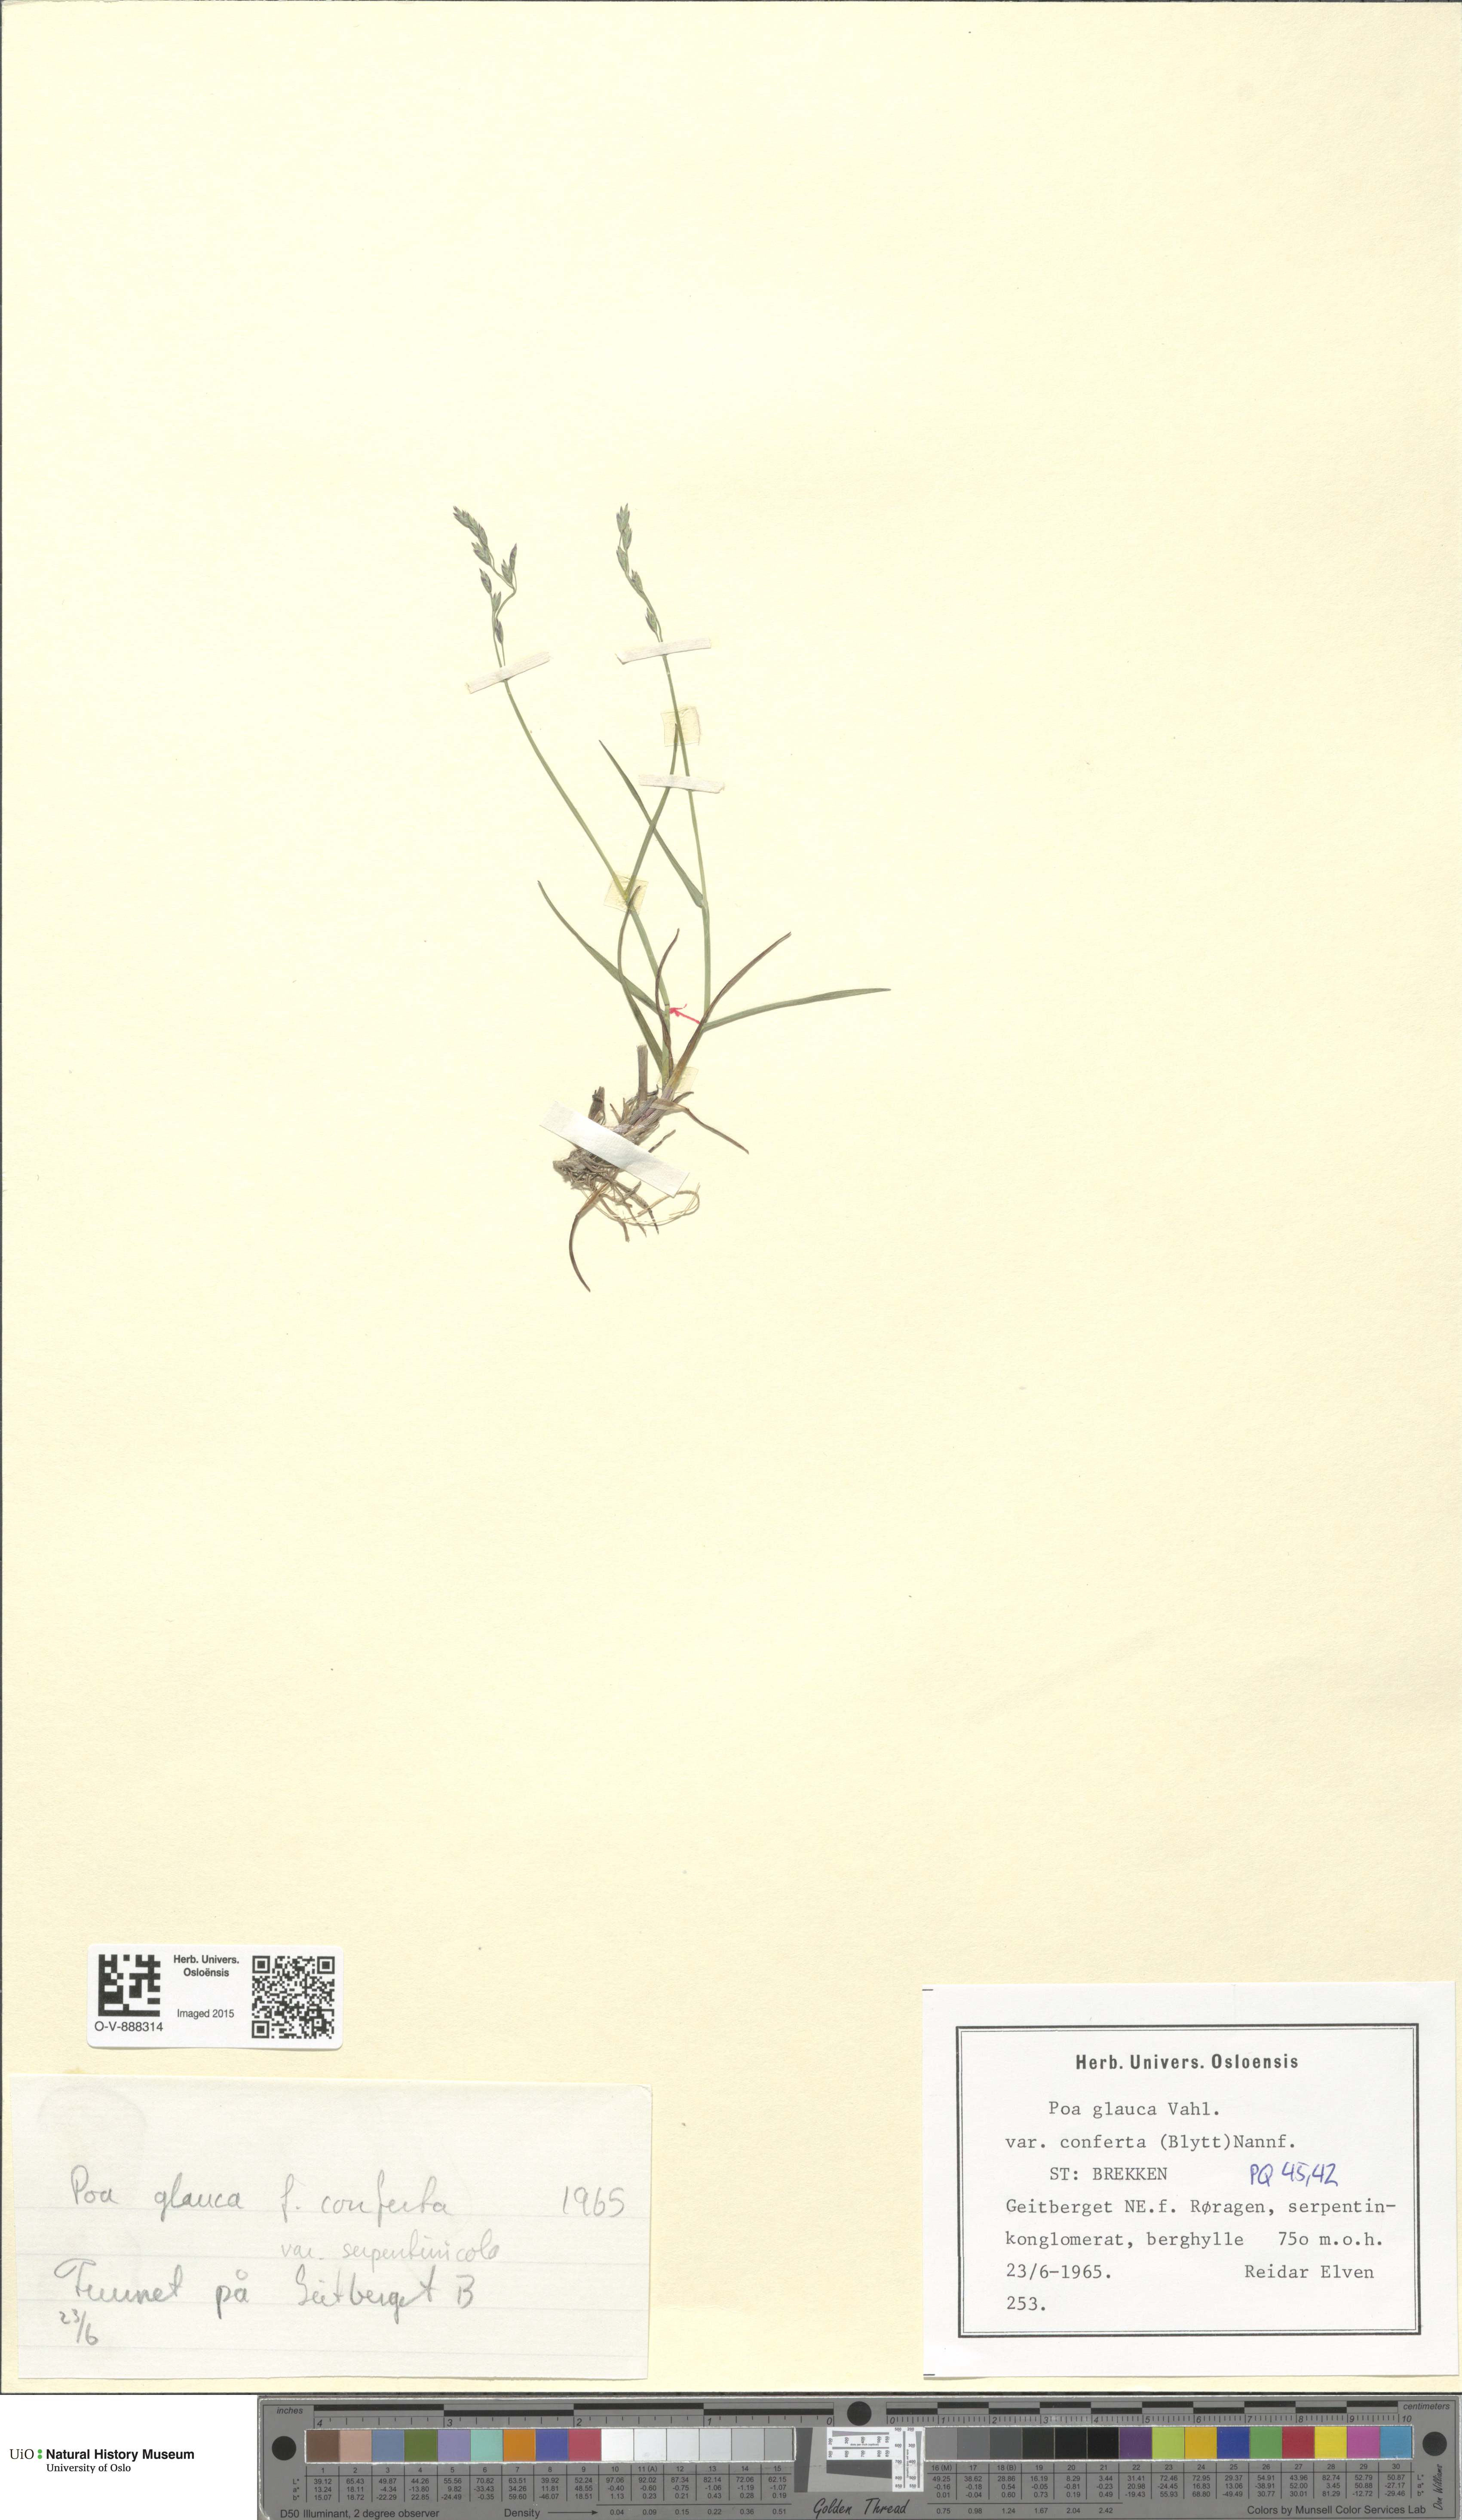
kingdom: Plantae
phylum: Tracheophyta
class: Liliopsida
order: Poales
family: Poaceae
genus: Poa
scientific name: Poa glauca
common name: Glaucous bluegrass
